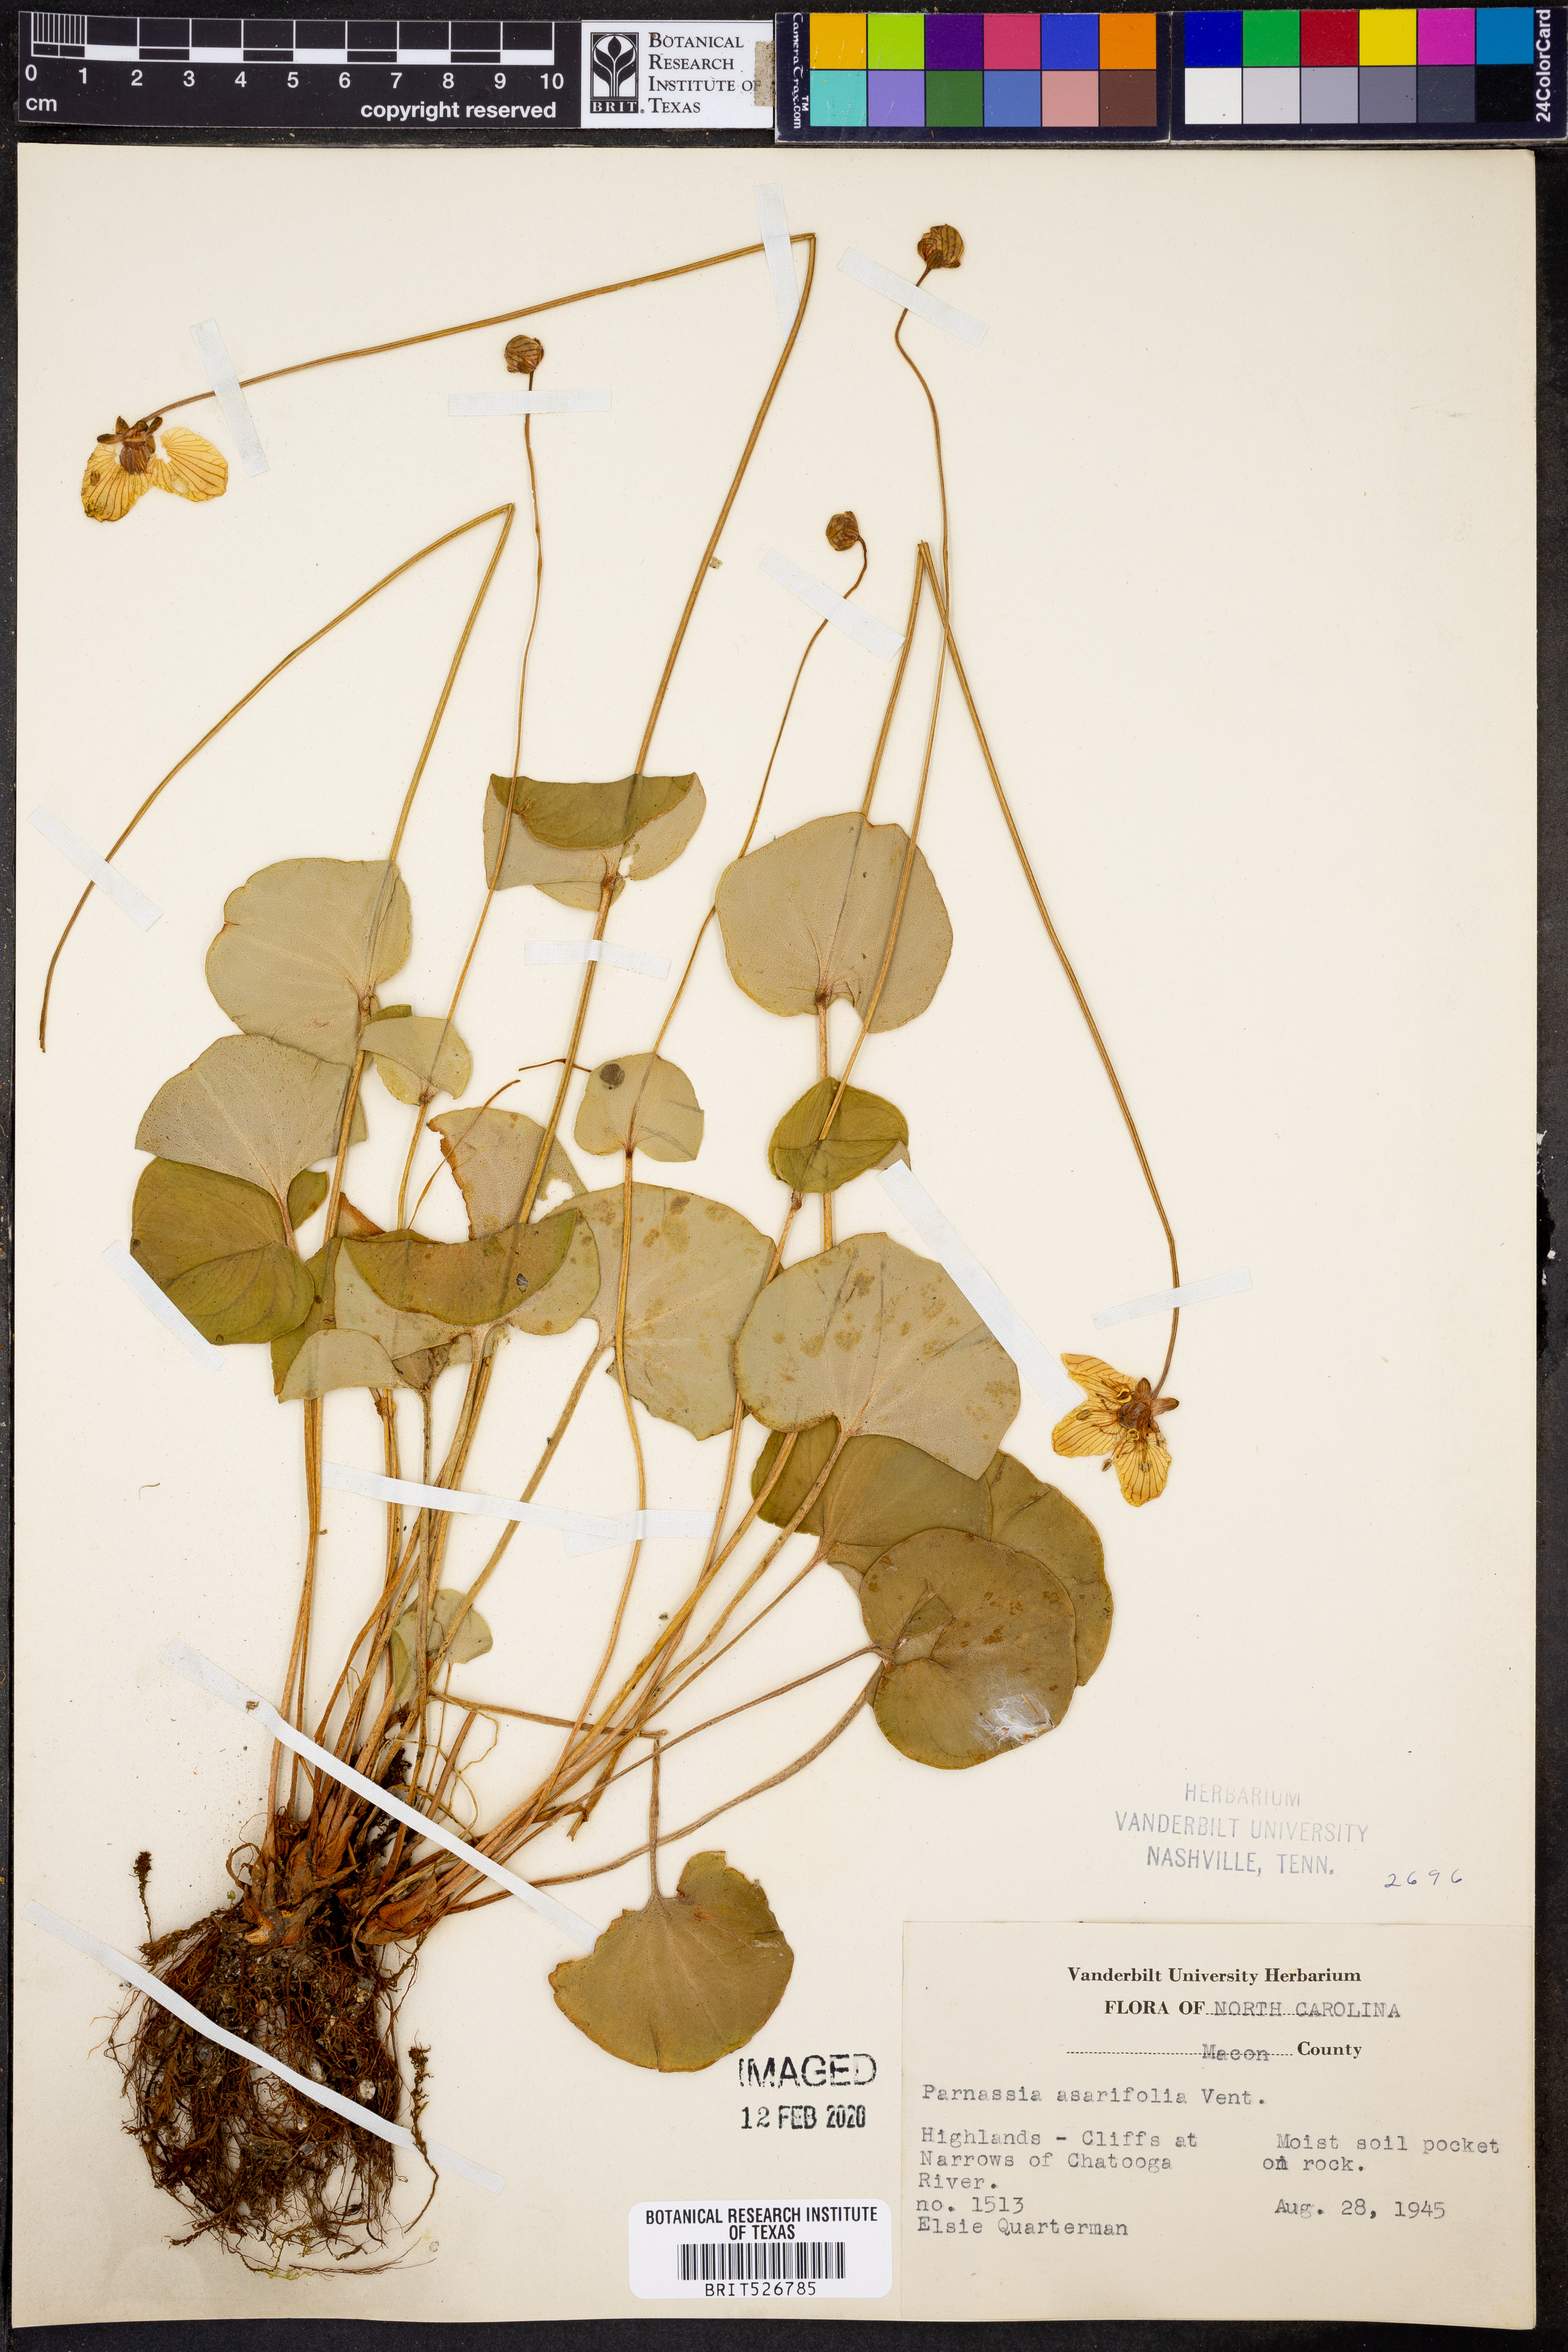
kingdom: Plantae
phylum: Tracheophyta
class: Magnoliopsida
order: Celastrales
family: Parnassiaceae
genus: Parnassia
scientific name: Parnassia asarifolia
